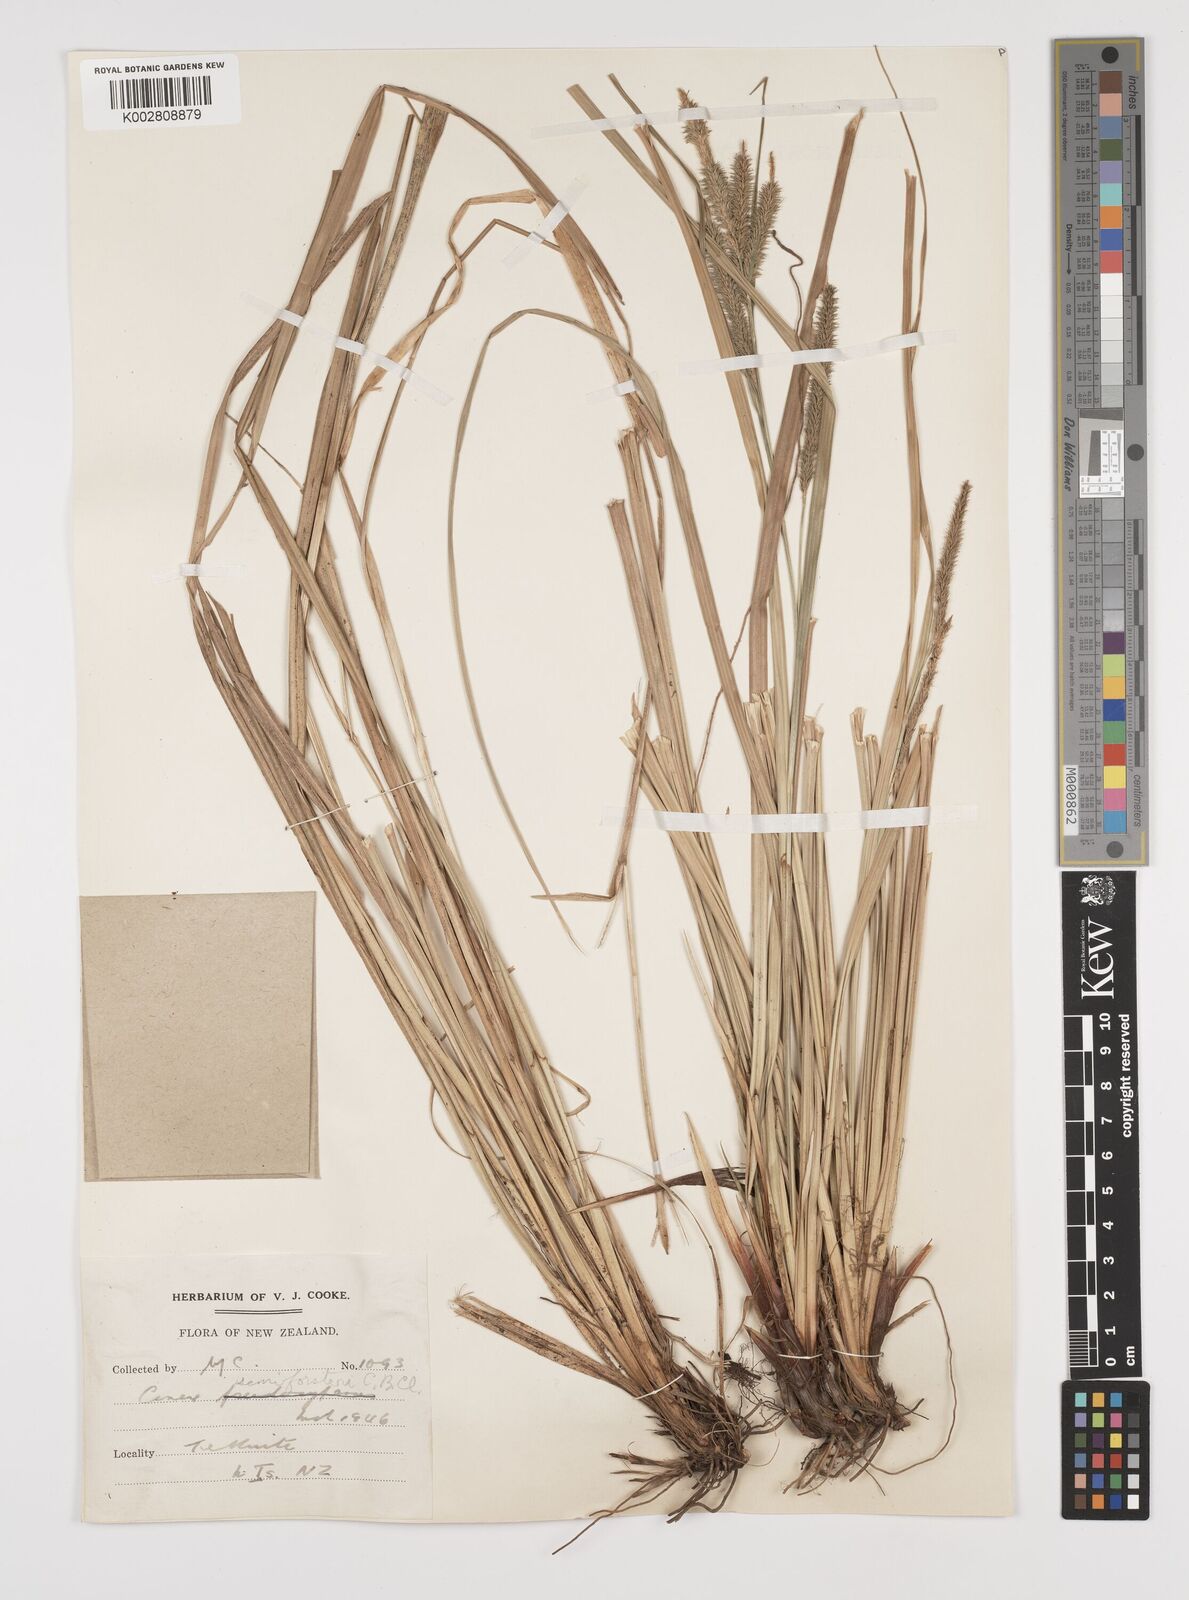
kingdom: Plantae
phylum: Tracheophyta
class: Liliopsida
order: Poales
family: Cyperaceae
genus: Carex
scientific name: Carex forsteri
